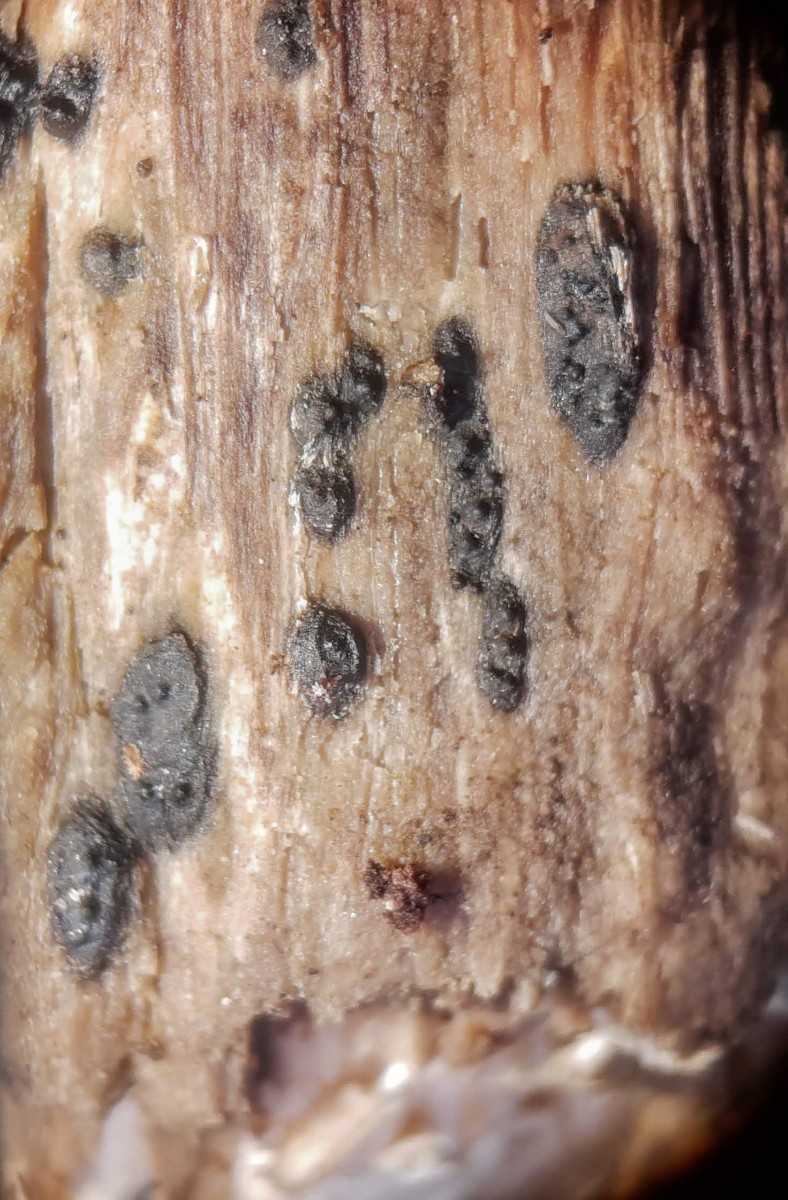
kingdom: Fungi
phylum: Ascomycota
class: Sordariomycetes
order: Xylariales
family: Xylariaceae
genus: Euepixylon
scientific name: Euepixylon udum
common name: ege-kuldyne
